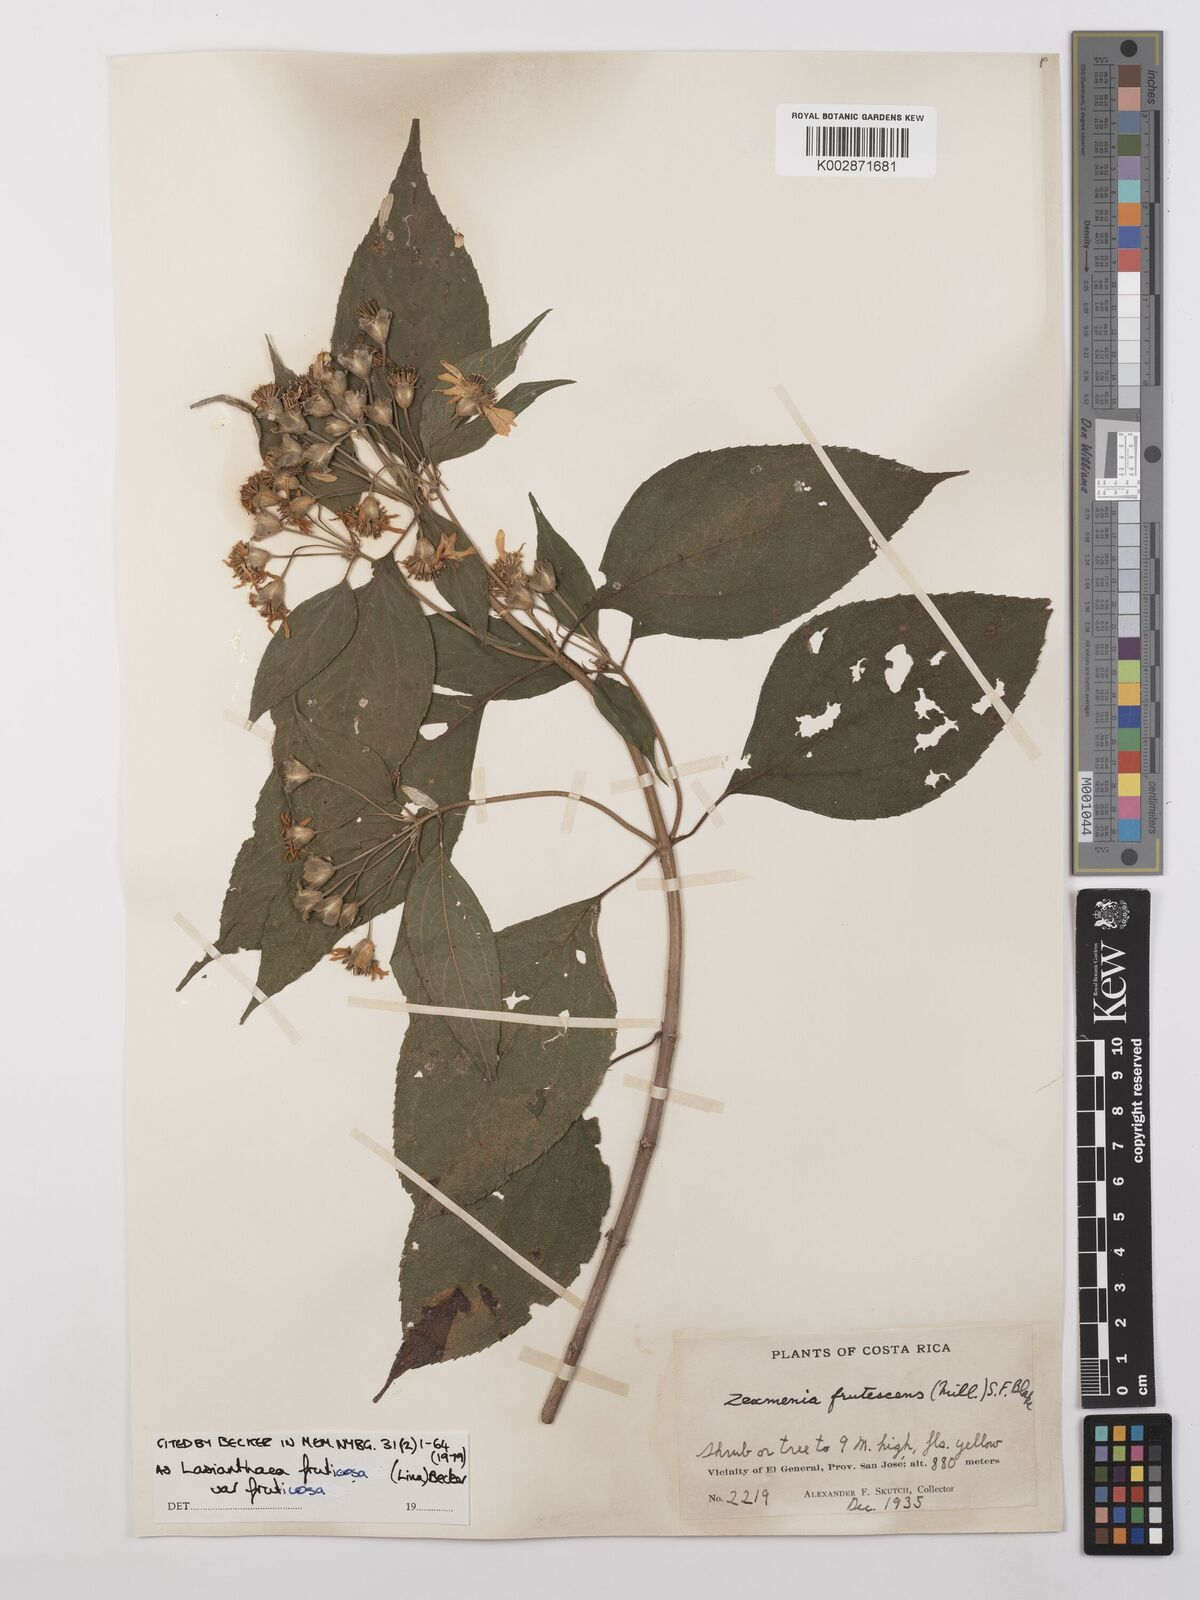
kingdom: Plantae
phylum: Tracheophyta
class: Magnoliopsida
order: Asterales
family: Asteraceae
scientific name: Asteraceae
